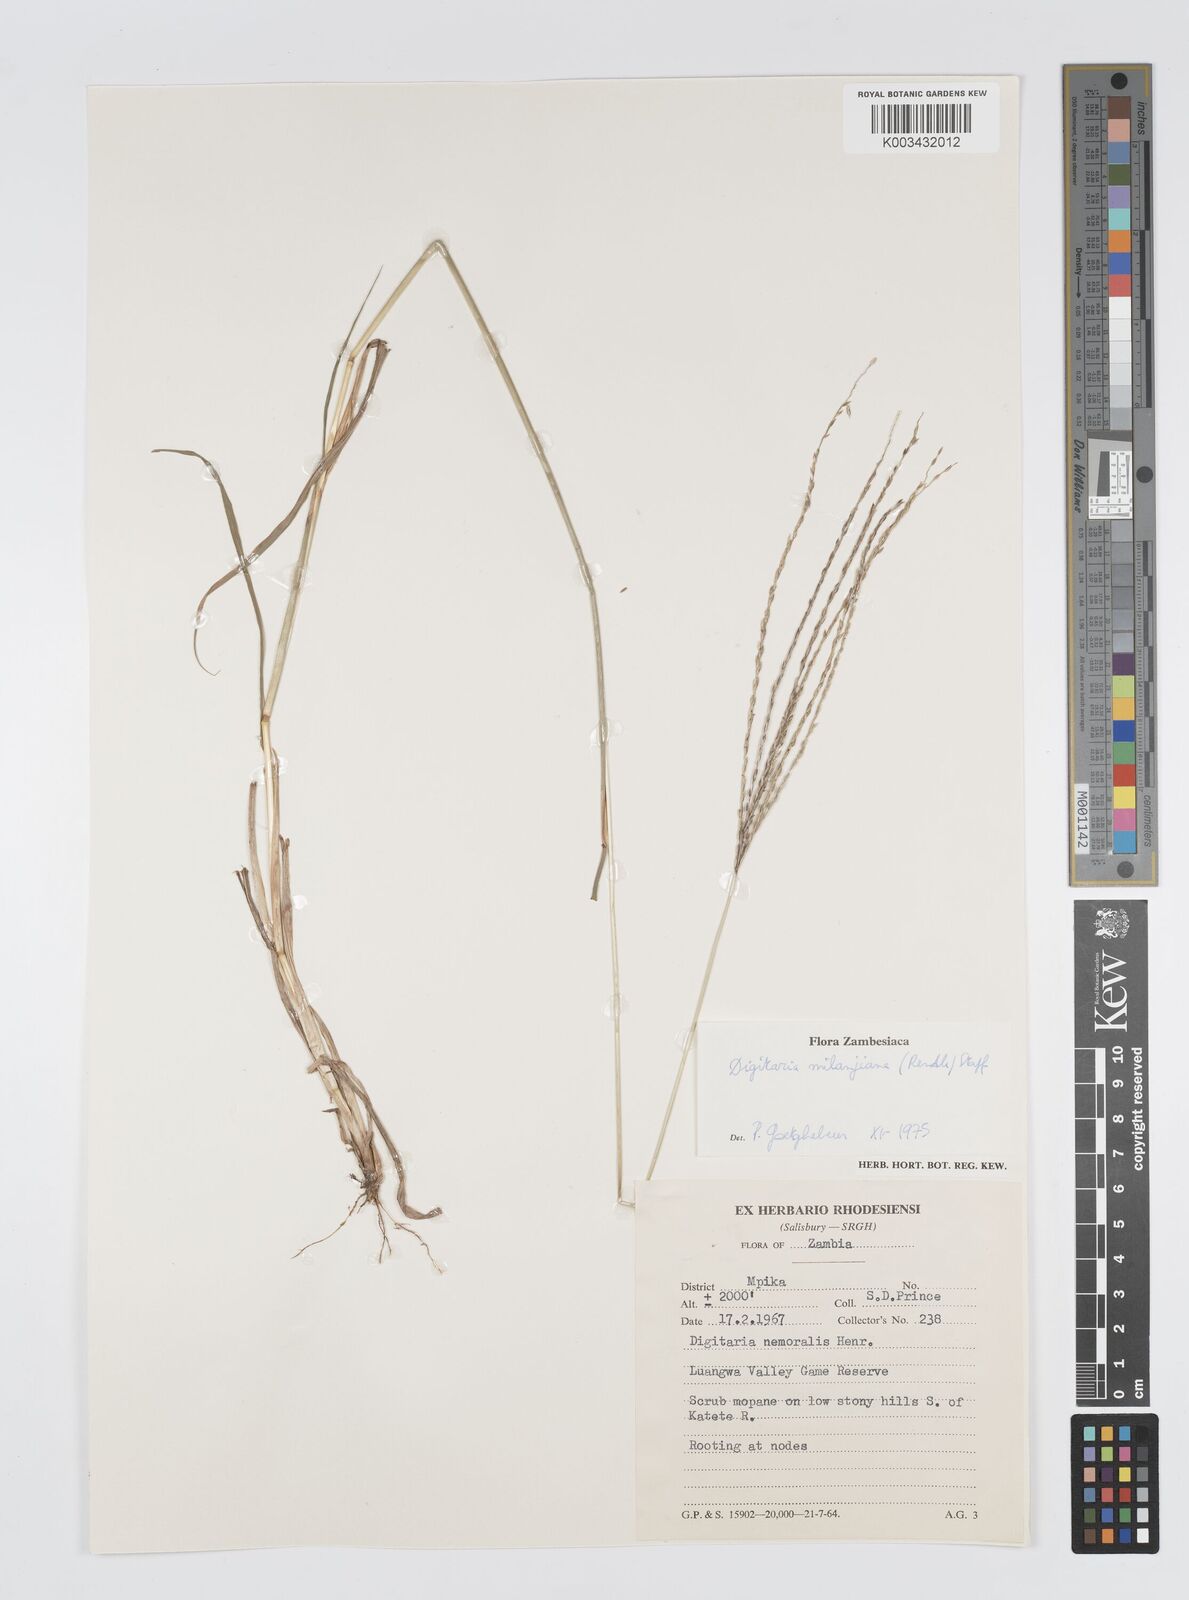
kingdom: Plantae
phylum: Tracheophyta
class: Liliopsida
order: Poales
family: Poaceae
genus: Digitaria
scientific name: Digitaria milanjiana
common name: Madagascar crabgrass
